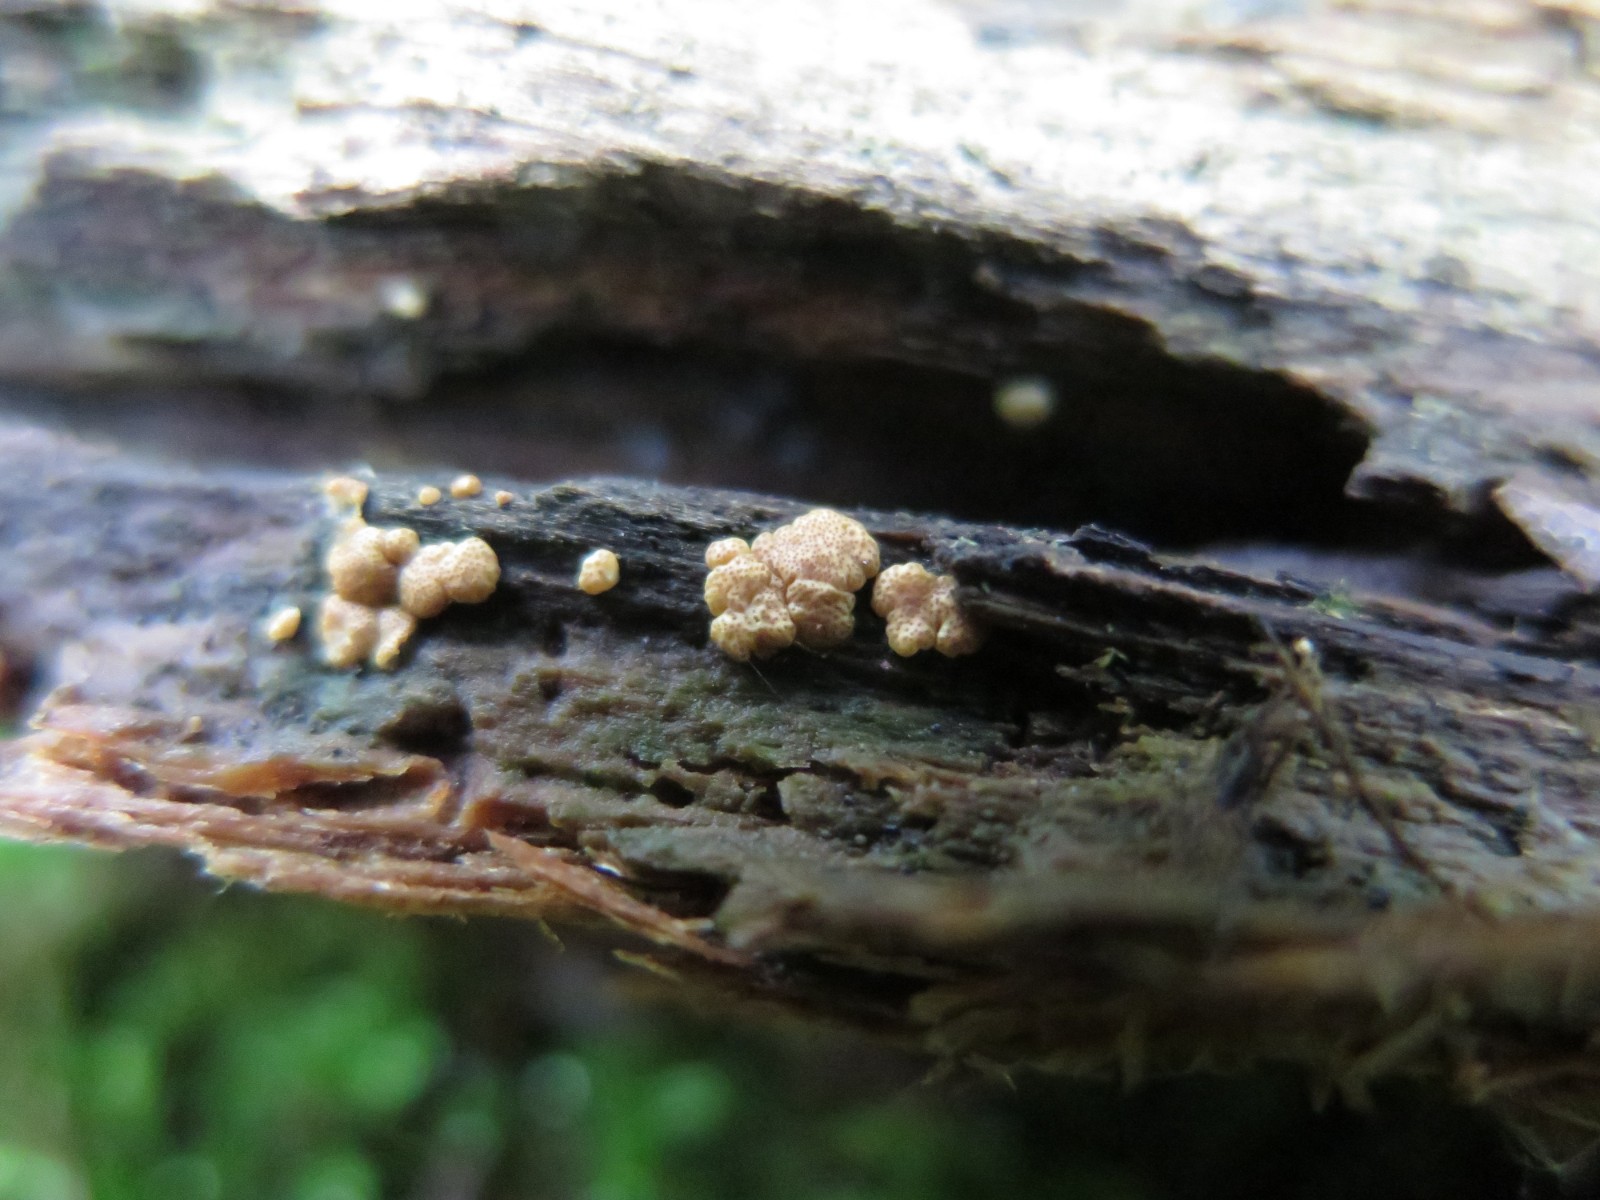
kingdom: Fungi
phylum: Ascomycota
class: Sordariomycetes
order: Hypocreales
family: Hypocreaceae
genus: Trichoderma
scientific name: Trichoderma
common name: kødkerne
